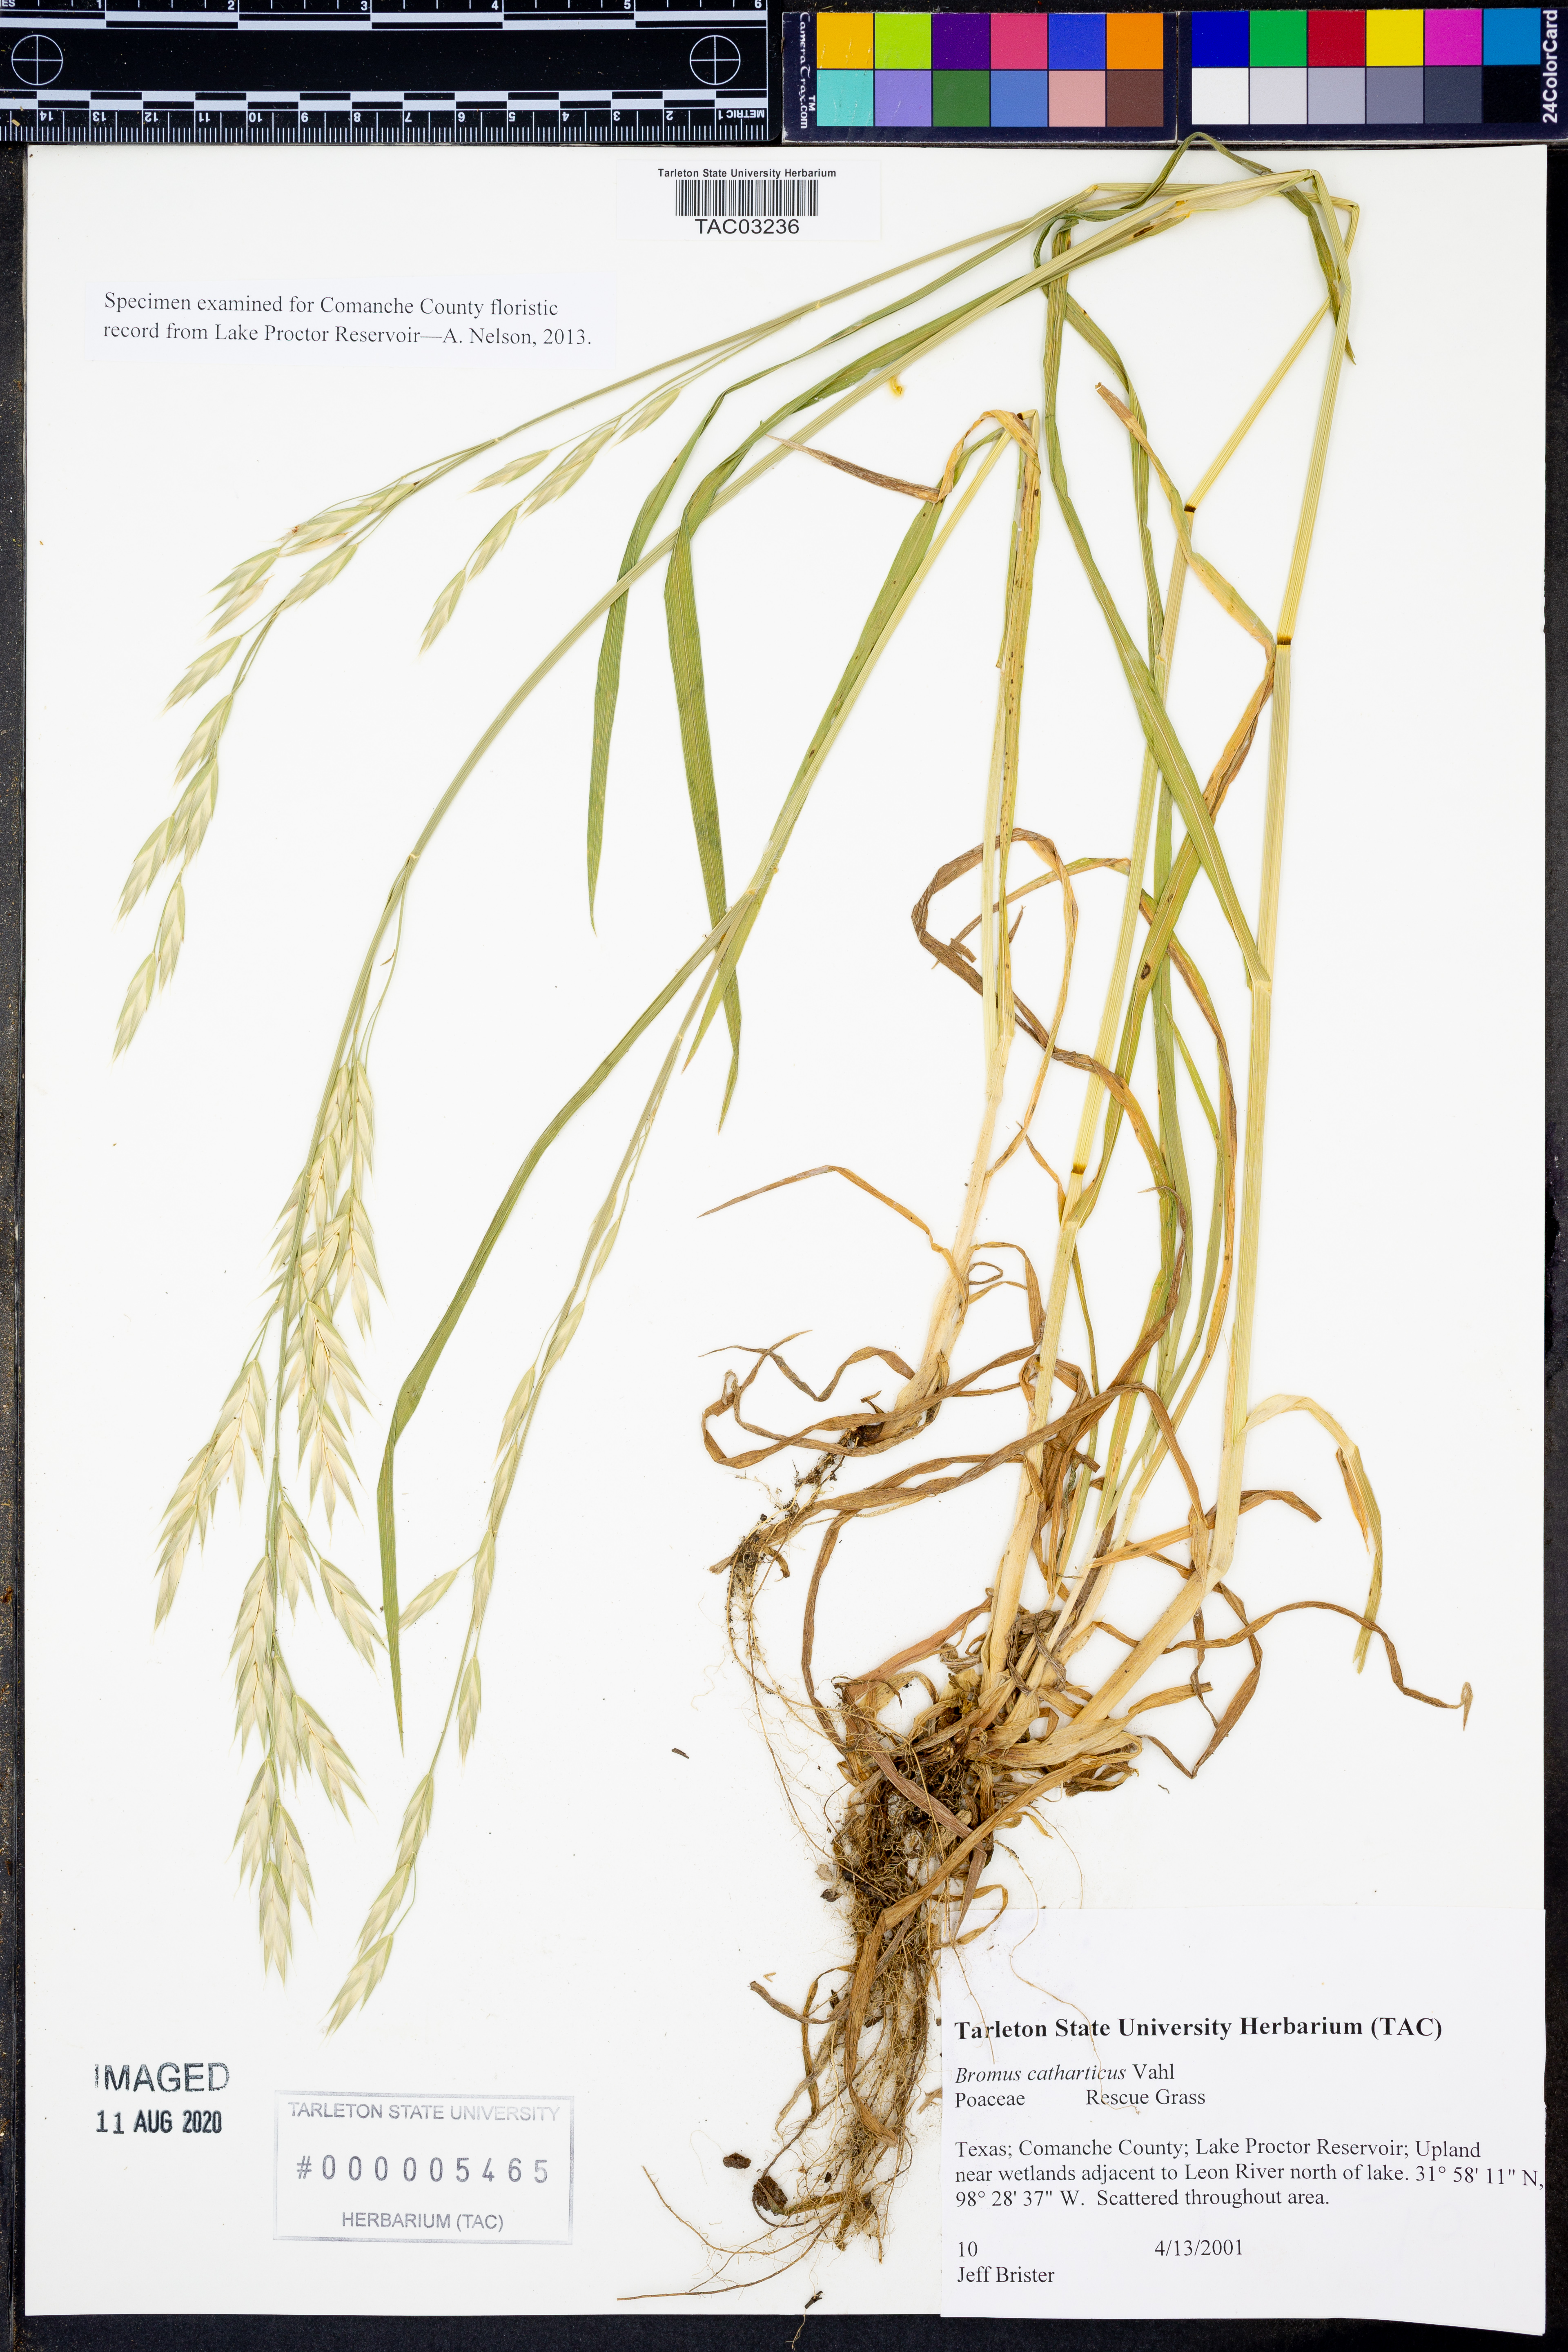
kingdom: Plantae
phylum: Tracheophyta
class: Liliopsida
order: Poales
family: Poaceae
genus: Bromus
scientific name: Bromus catharticus
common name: Rescuegrass
